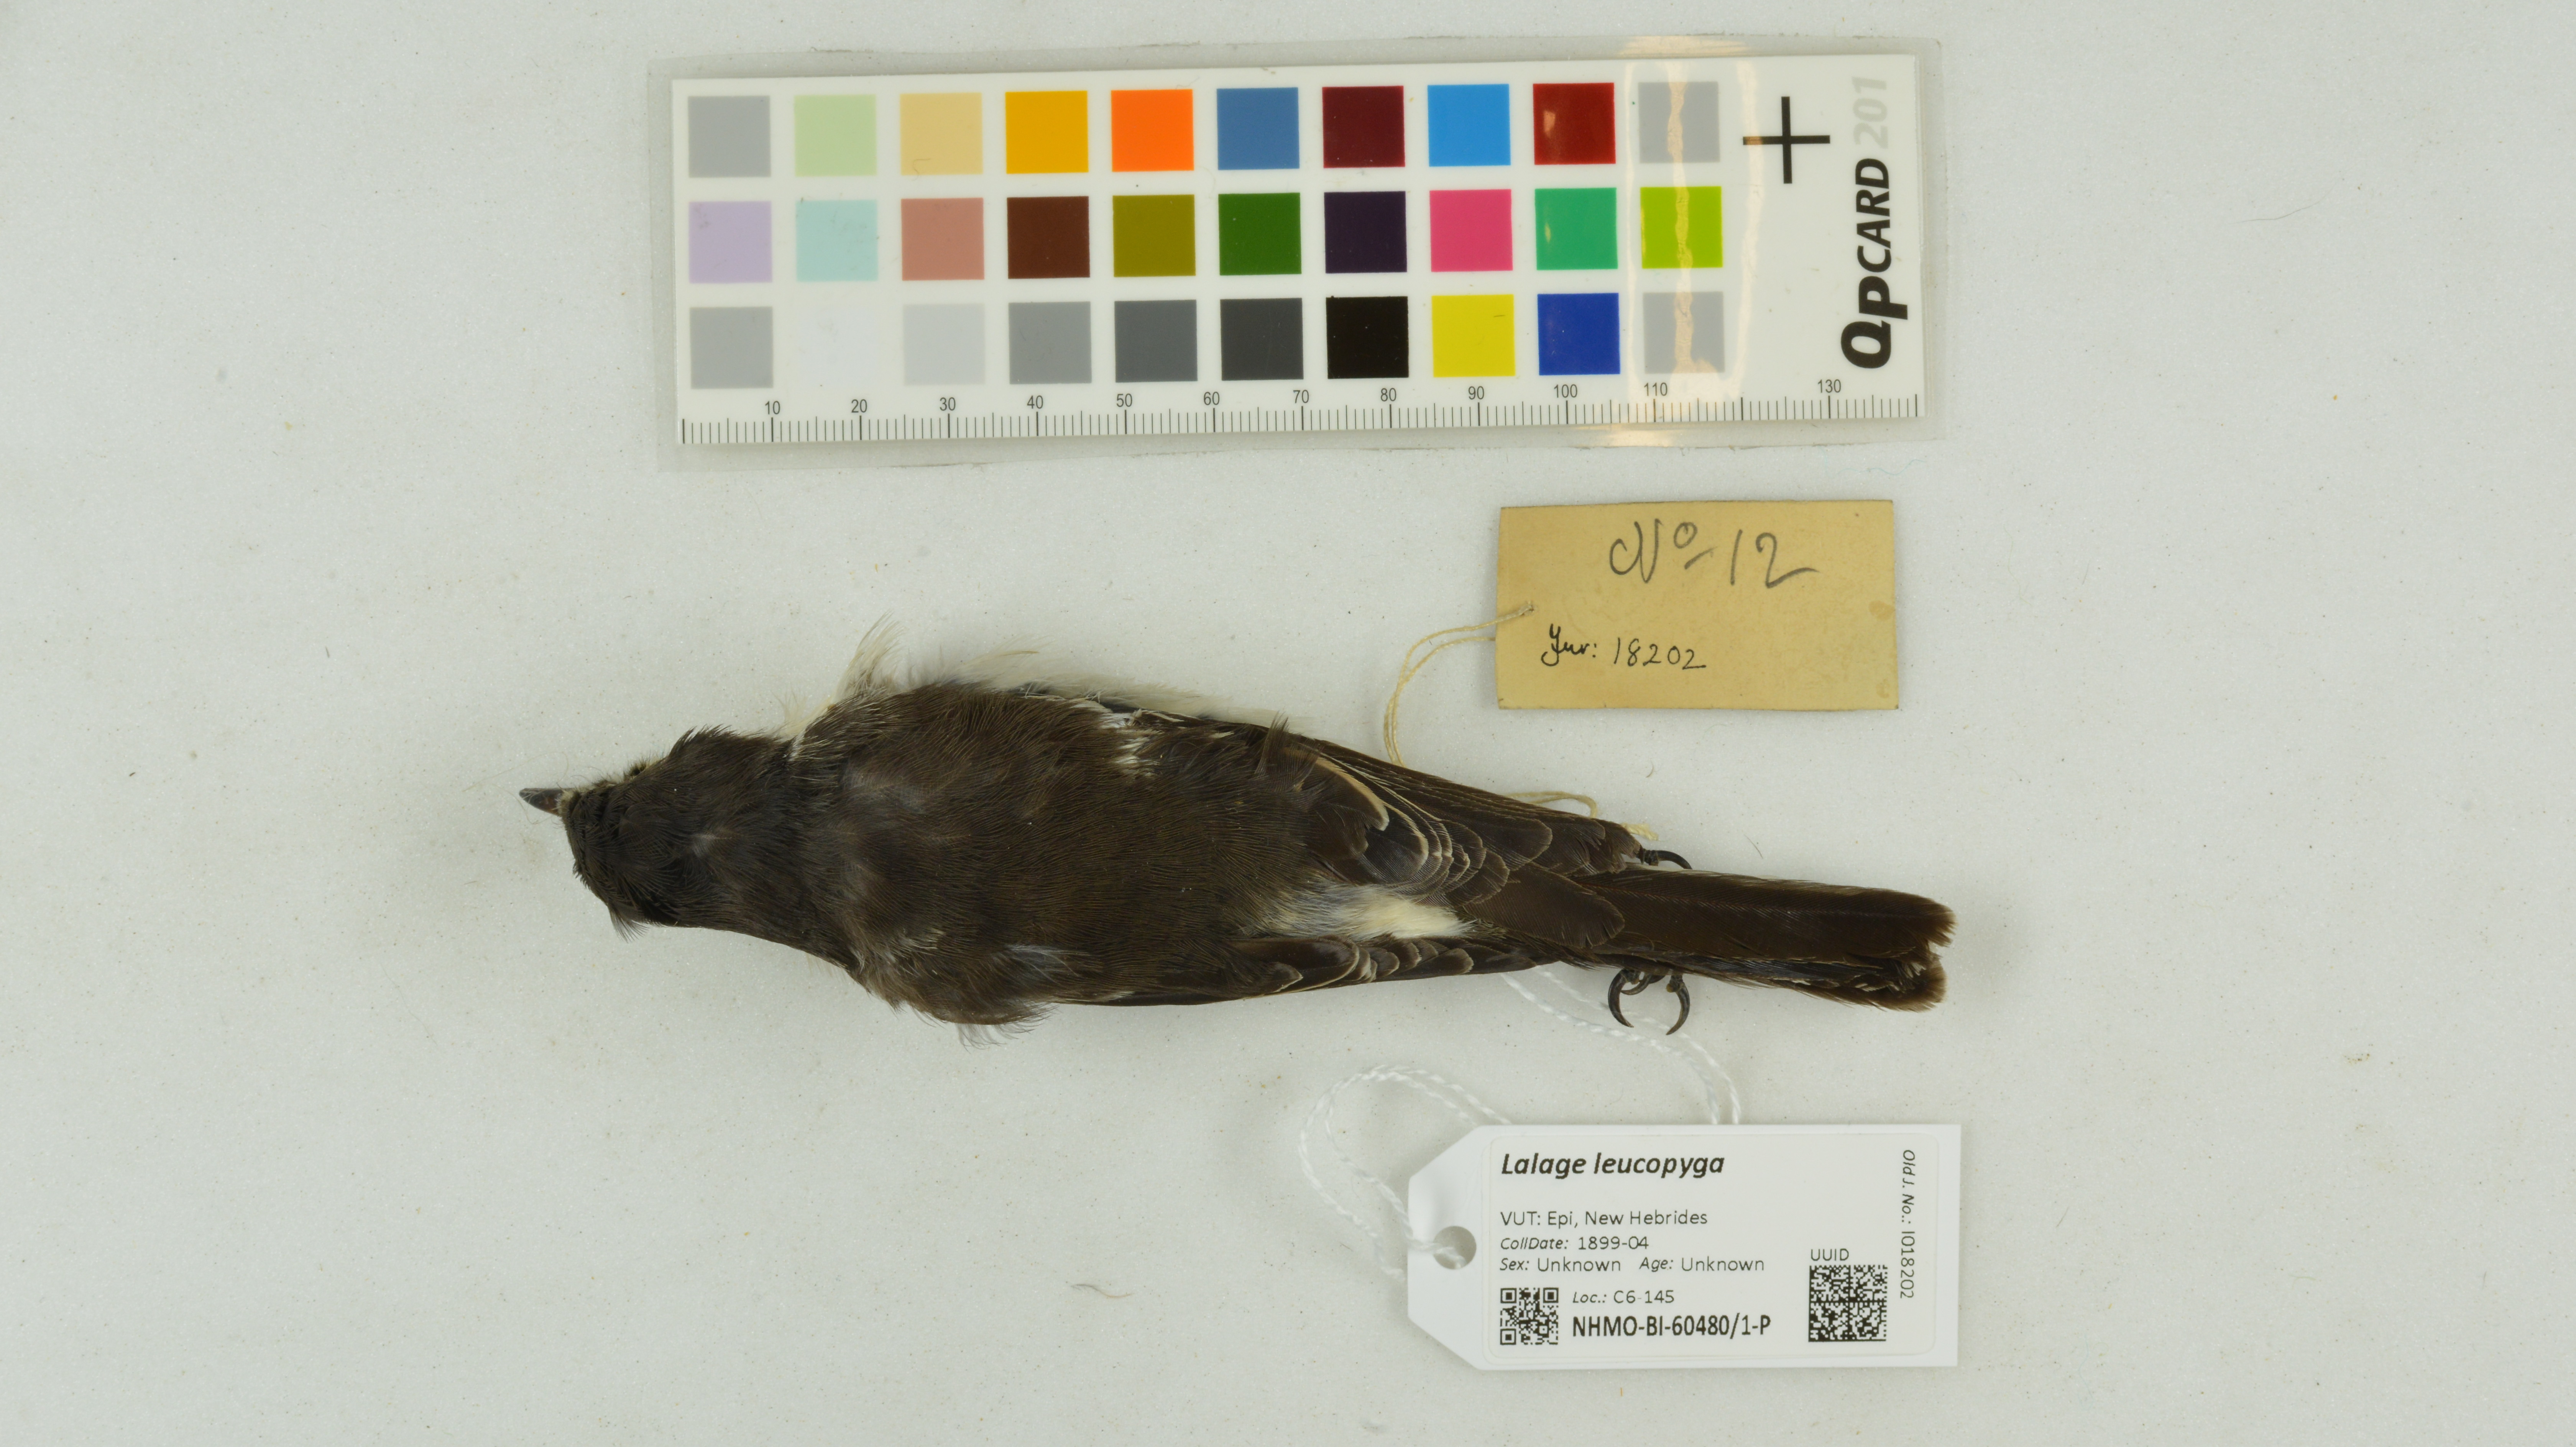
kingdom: Animalia
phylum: Chordata
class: Aves
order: Passeriformes
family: Campephagidae
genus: Lalage
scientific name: Lalage leucopyga
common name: Long-tailed triller
